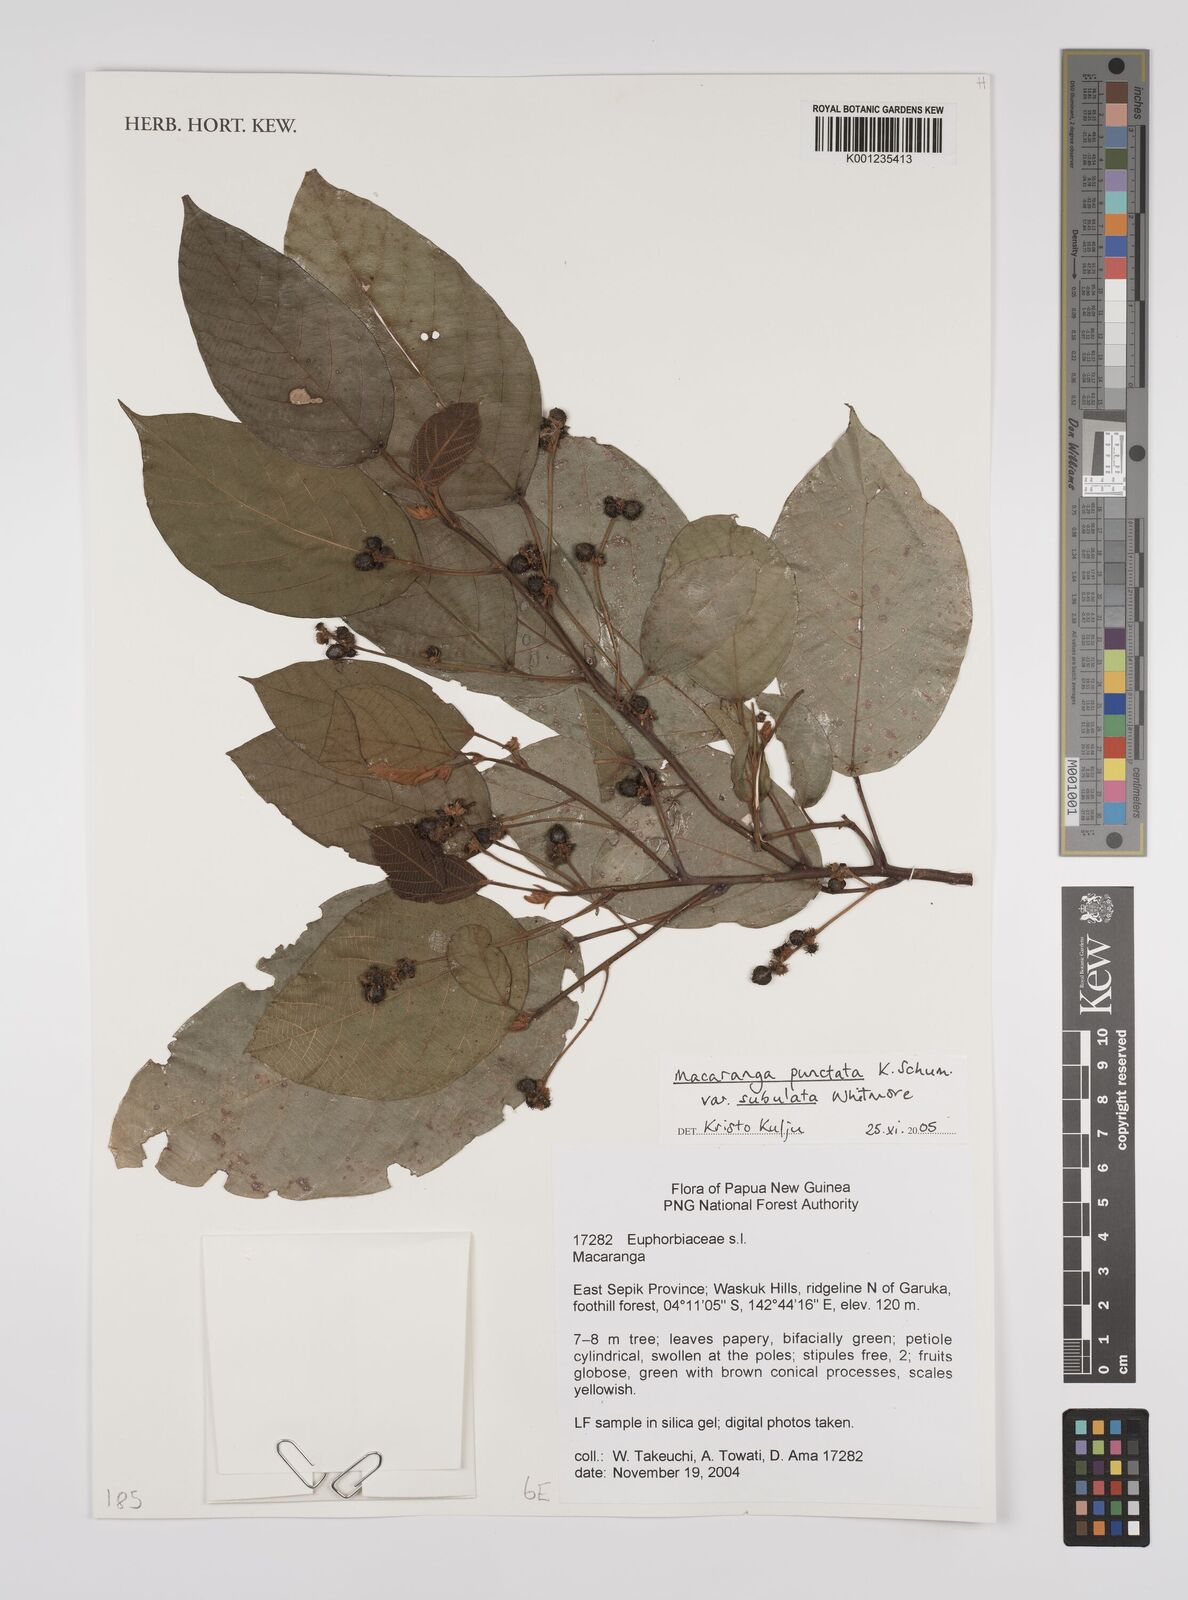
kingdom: Plantae
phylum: Tracheophyta
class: Magnoliopsida
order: Malpighiales
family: Euphorbiaceae
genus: Macaranga
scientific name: Macaranga punctata
